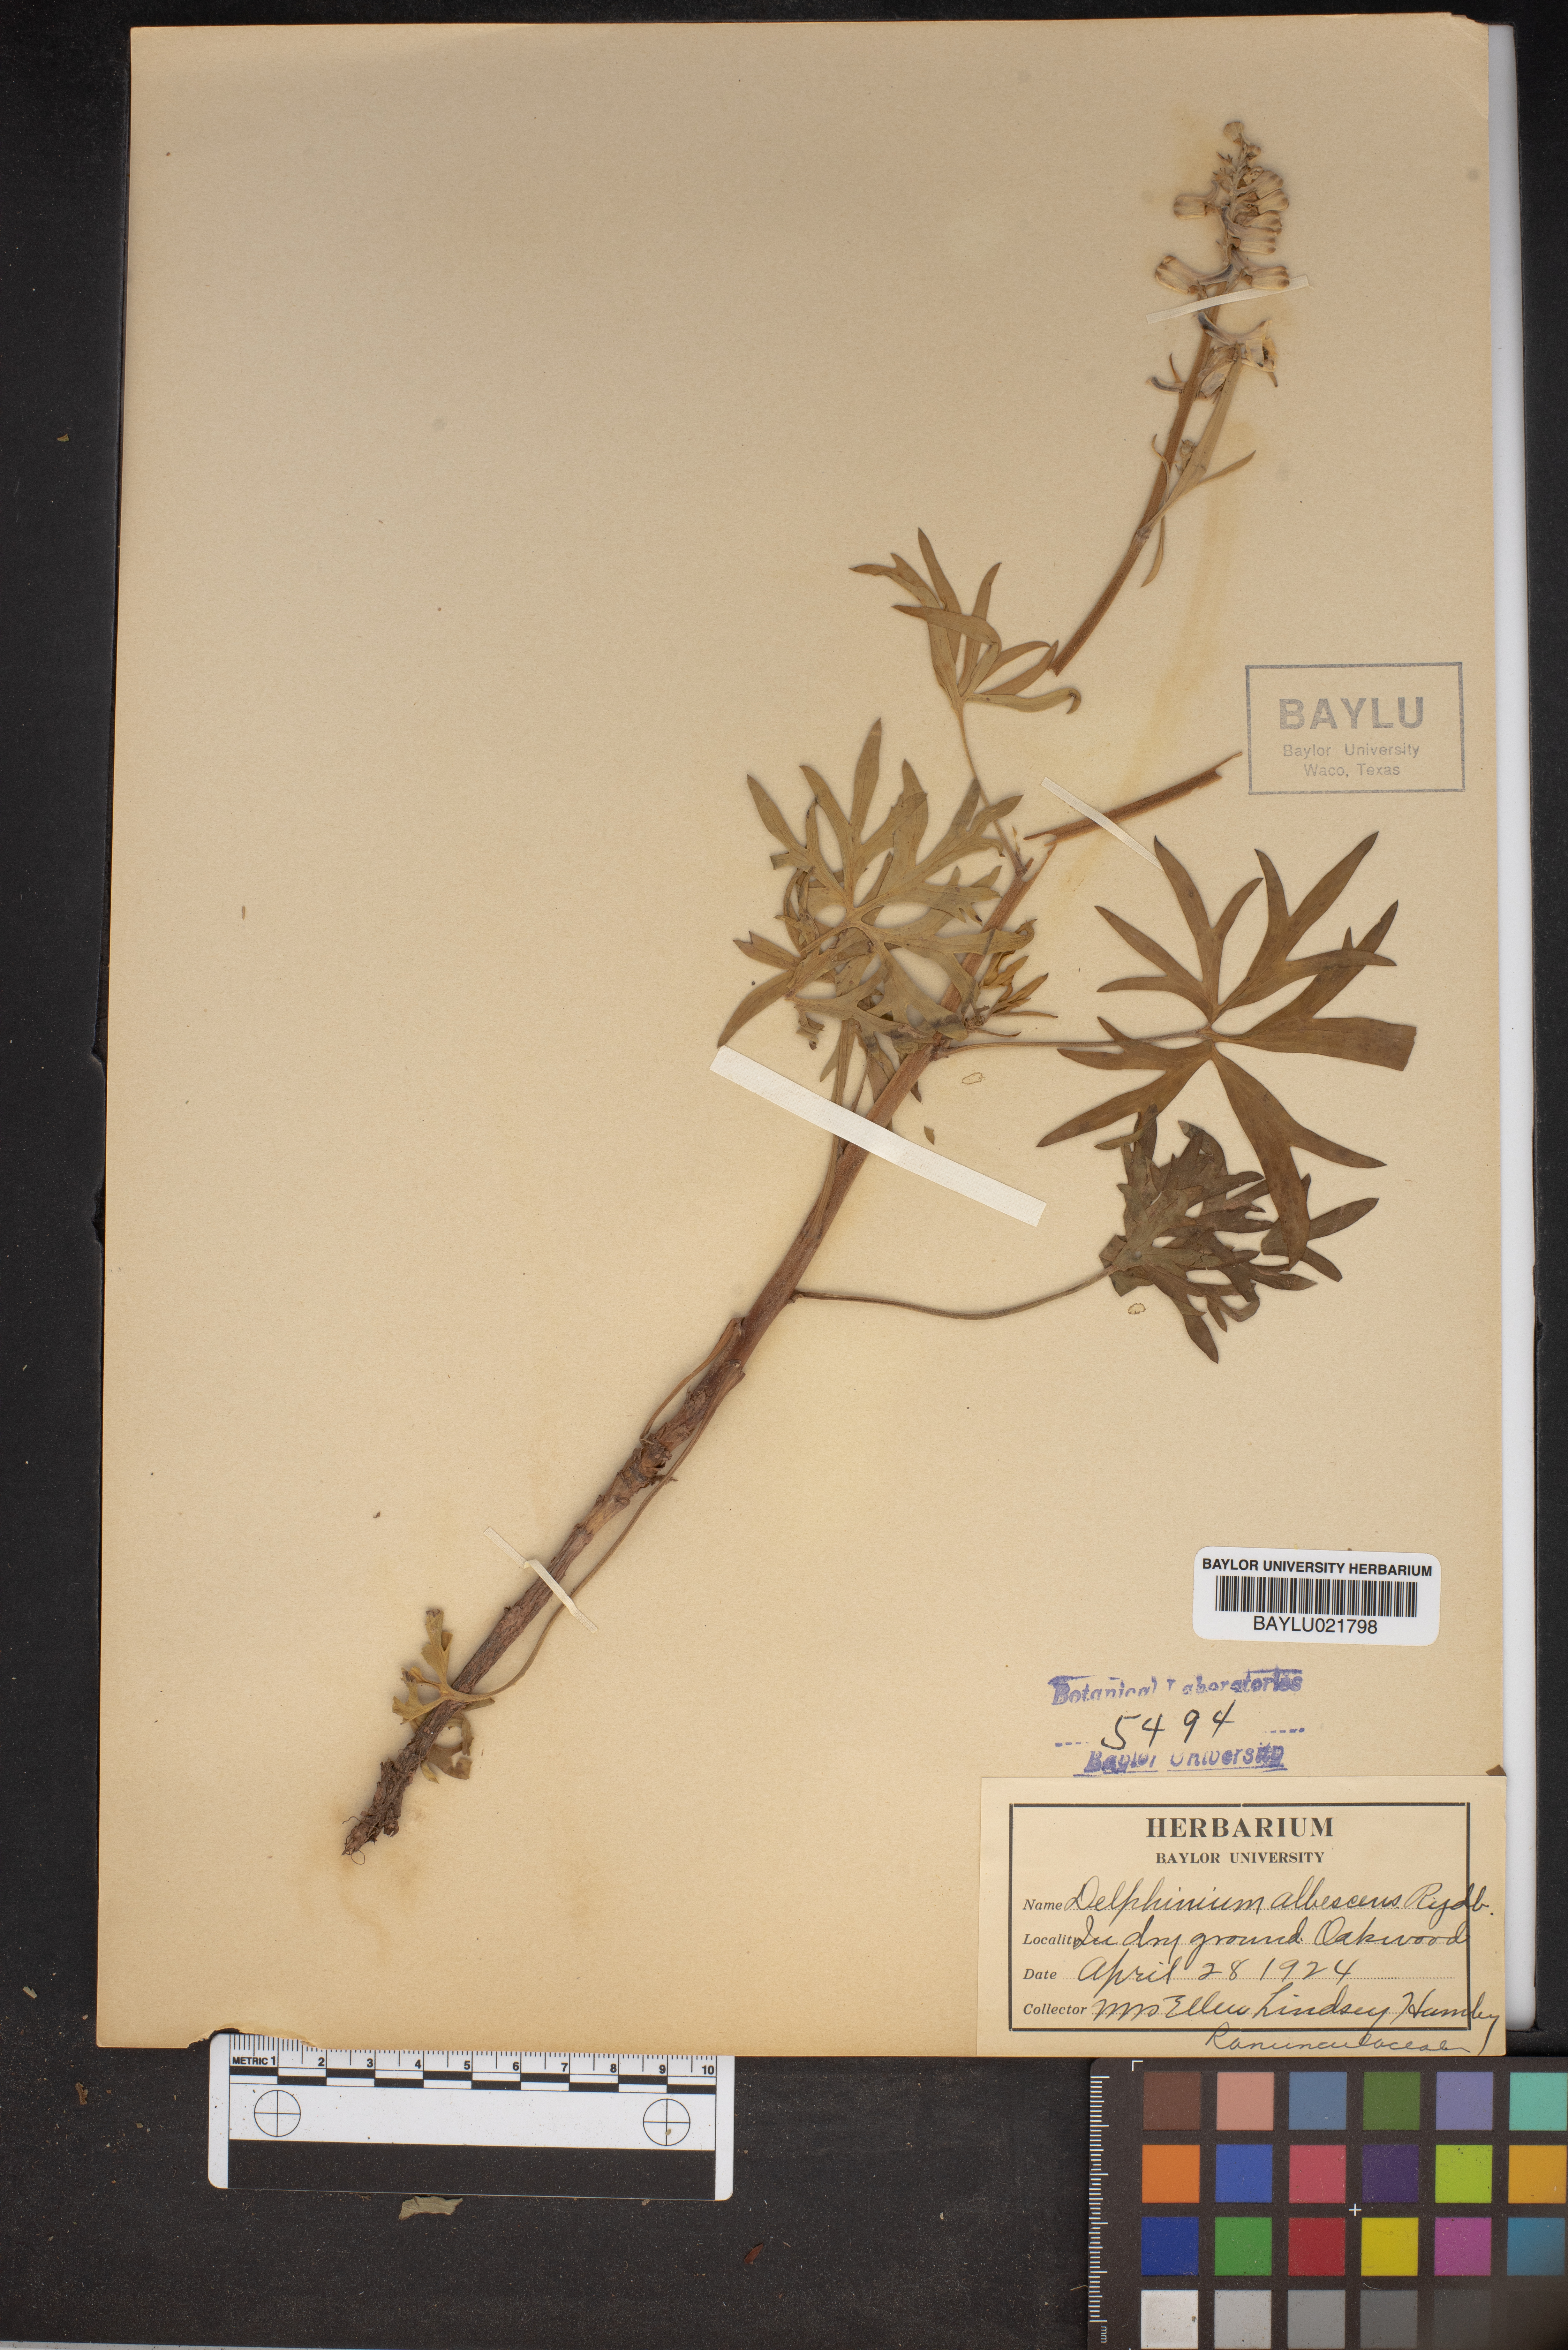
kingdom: Plantae
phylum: Tracheophyta
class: Magnoliopsida
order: Ranunculales
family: Ranunculaceae
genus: Delphinium
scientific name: Delphinium carolinianum
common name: Carolina larkspur
